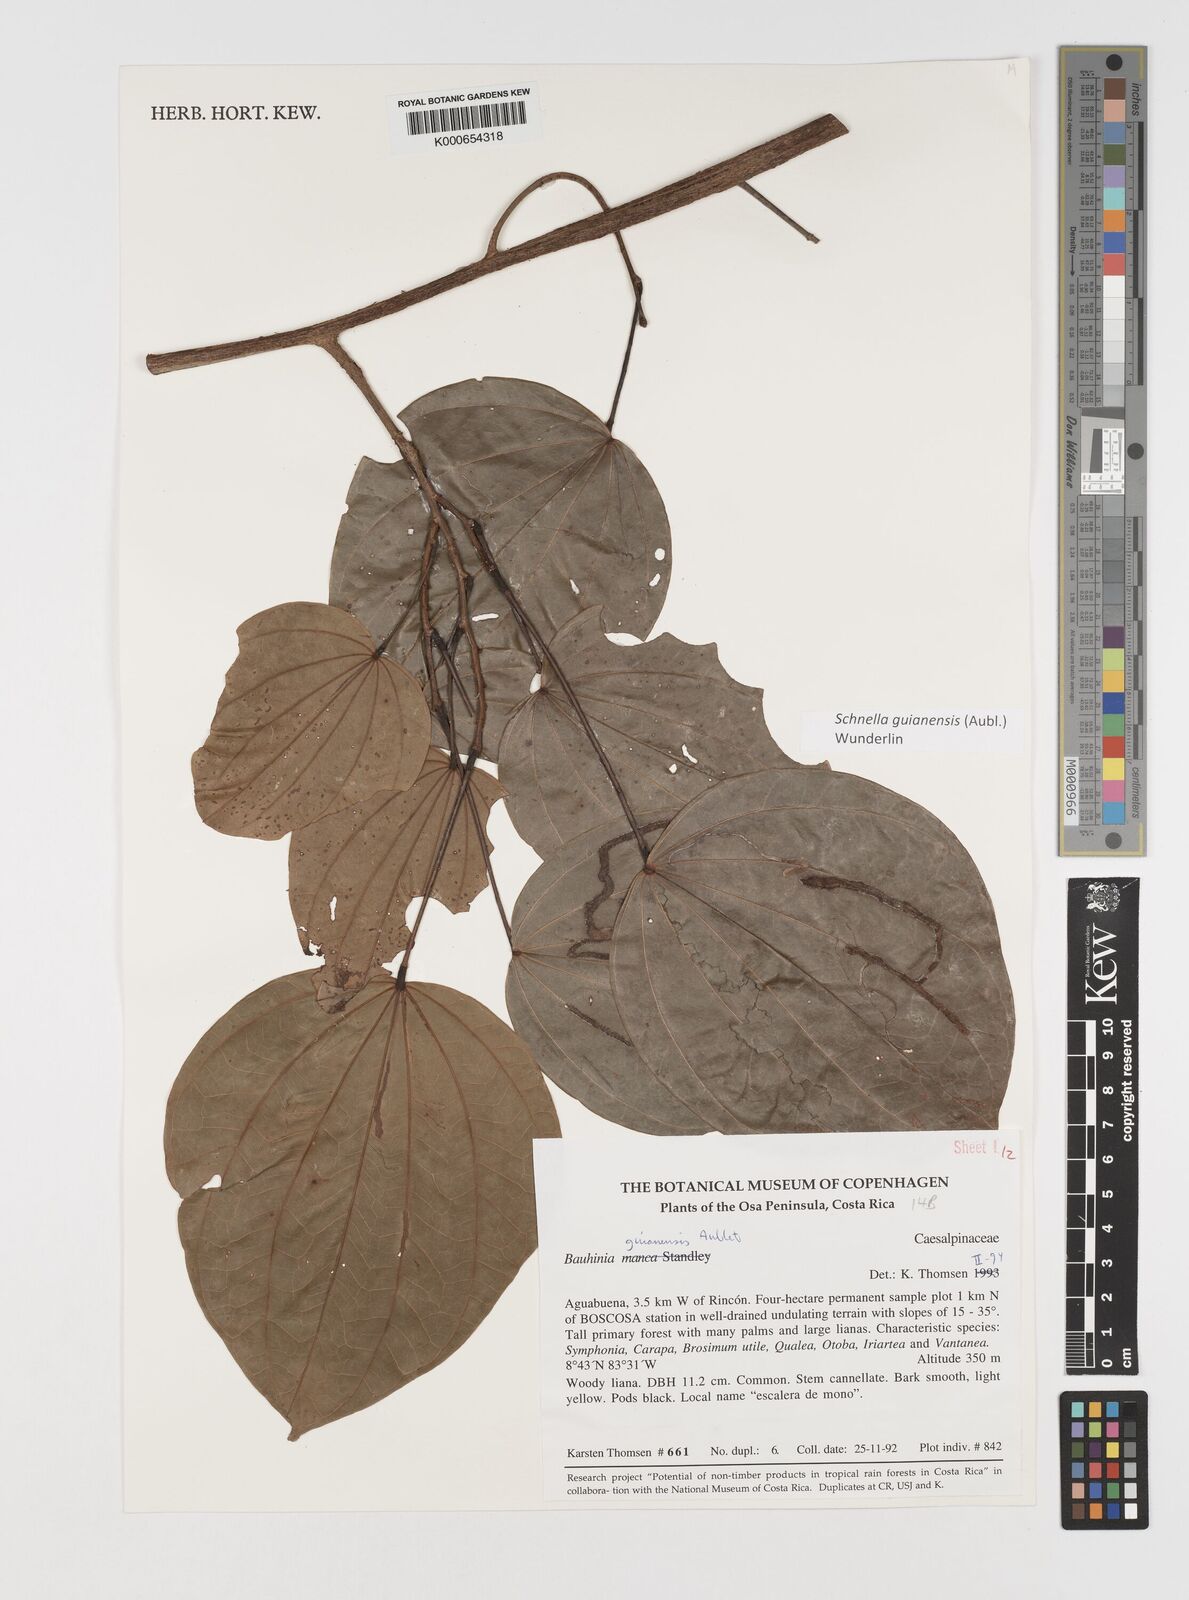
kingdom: Plantae
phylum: Tracheophyta
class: Magnoliopsida
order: Fabales
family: Fabaceae
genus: Schnella
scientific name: Schnella guianensis
